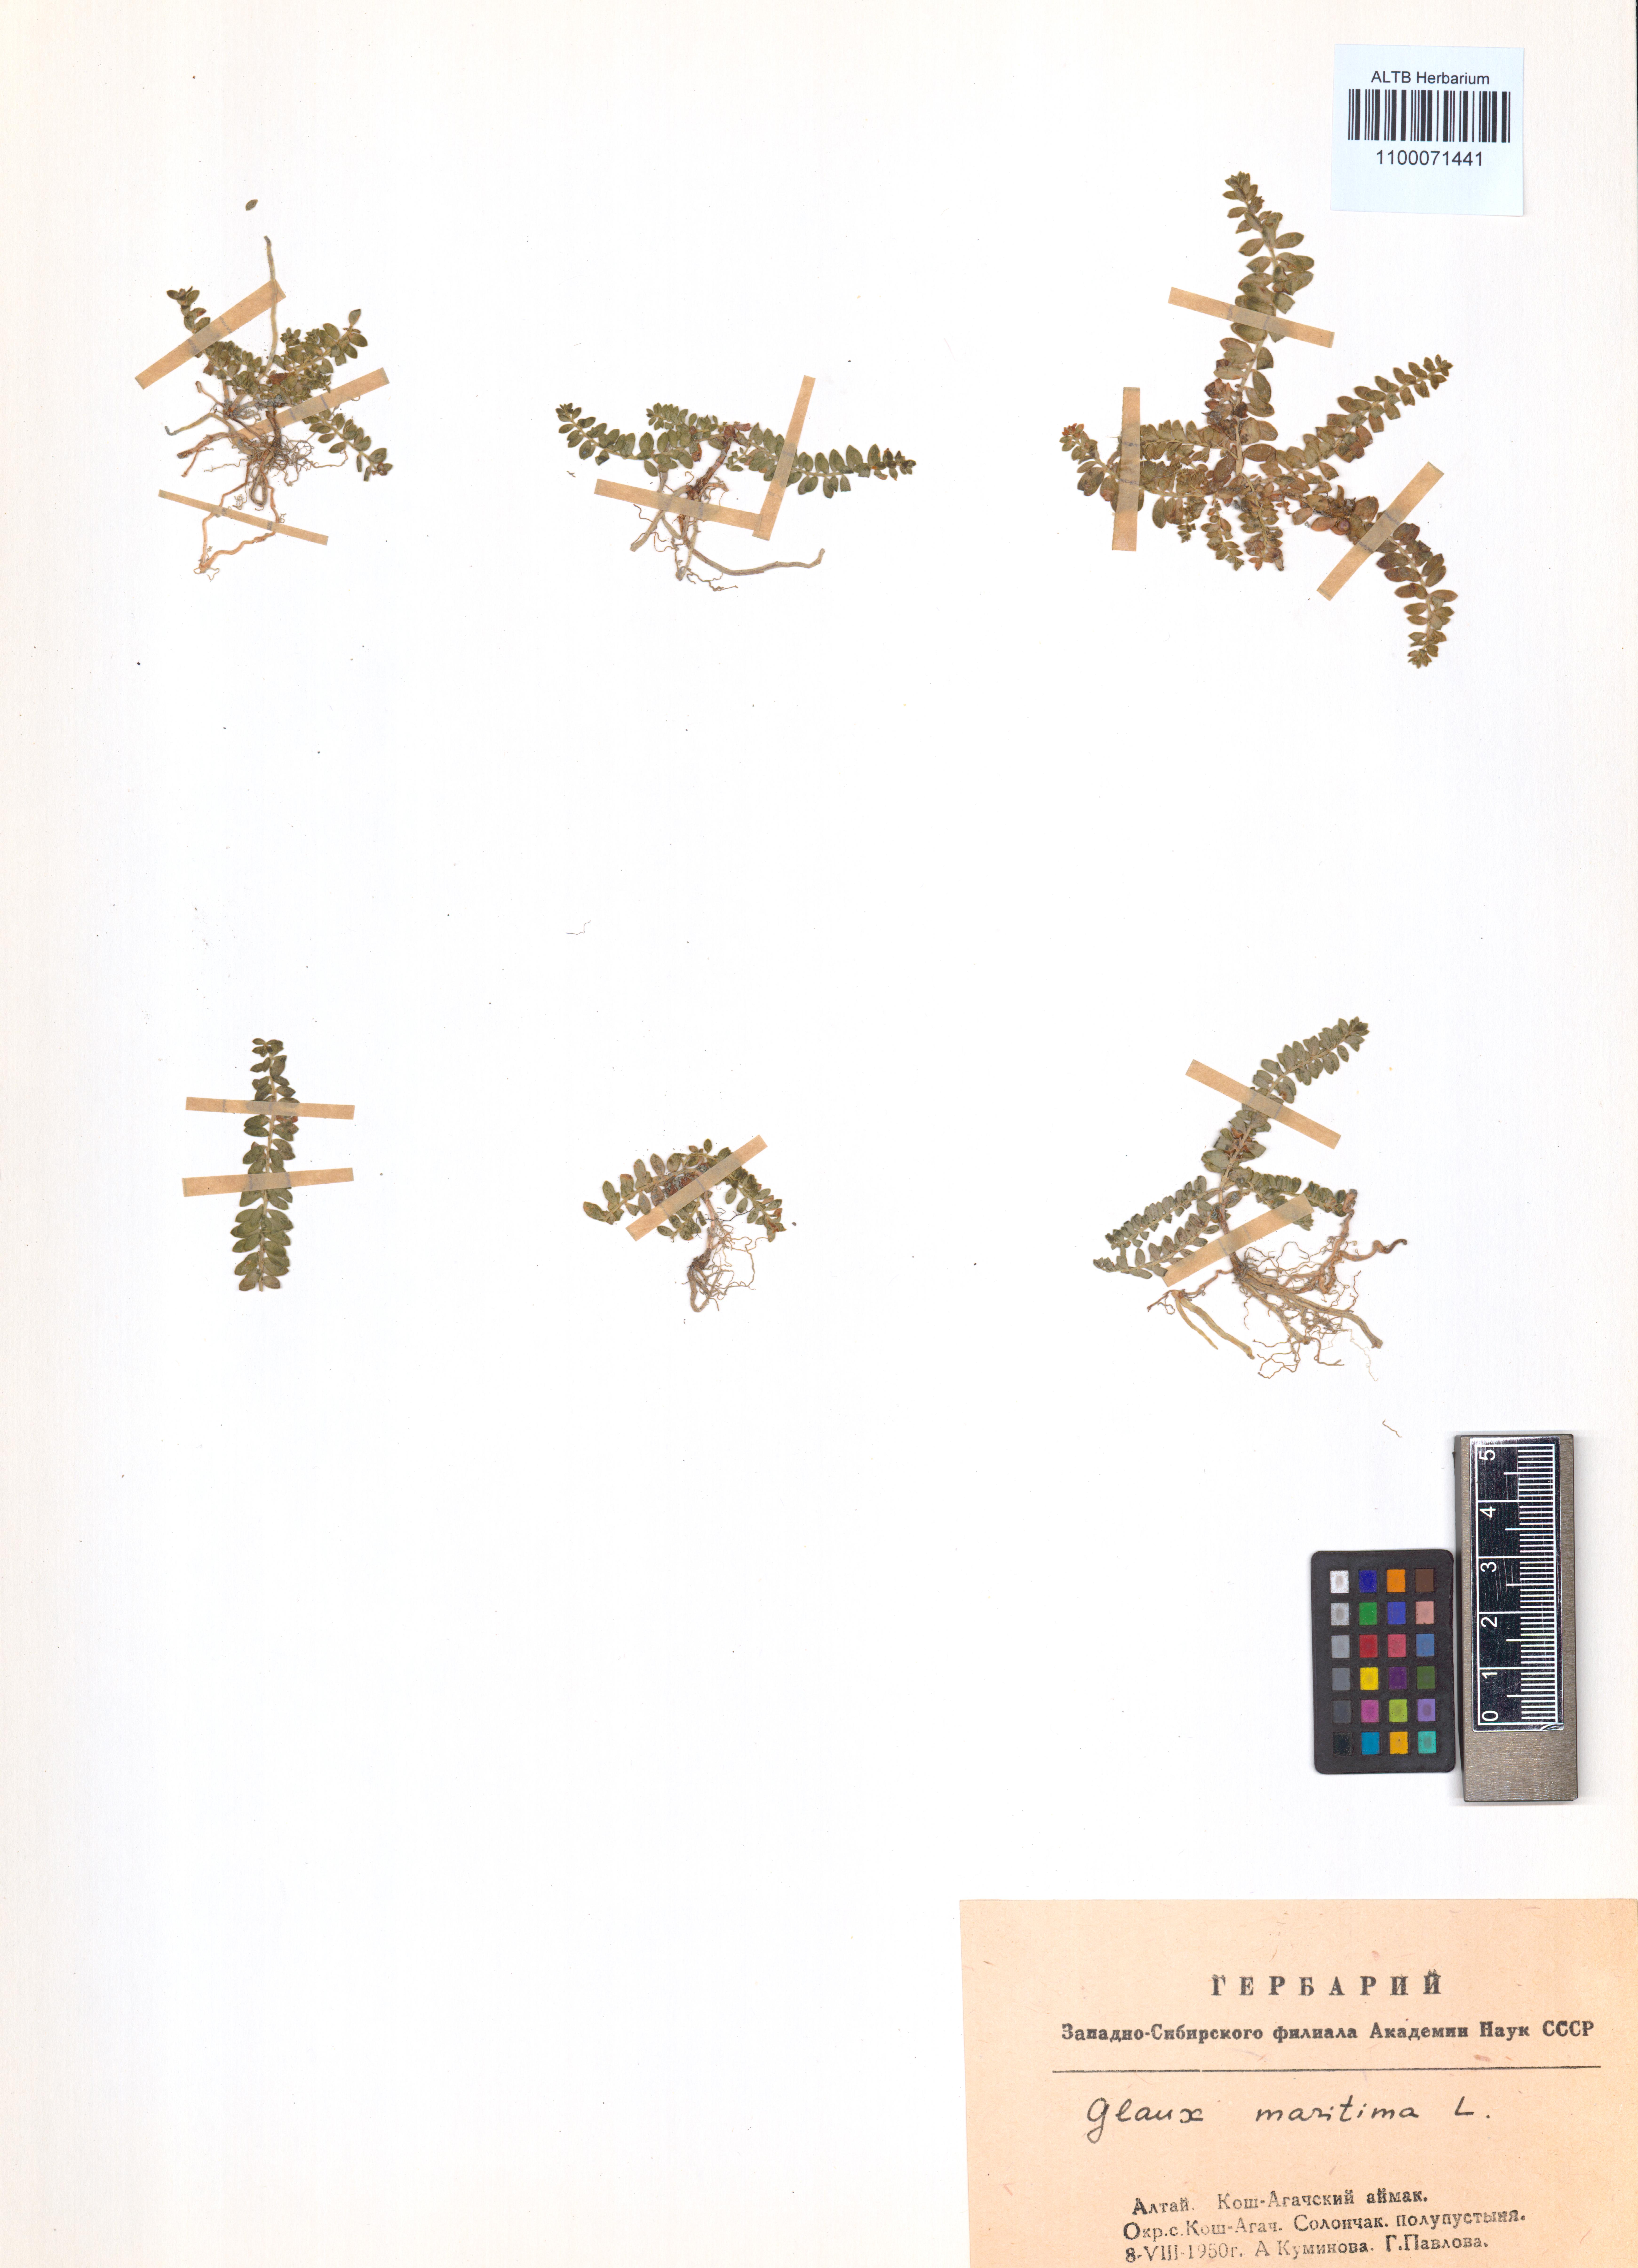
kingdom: Plantae
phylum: Tracheophyta
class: Magnoliopsida
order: Ericales
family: Primulaceae
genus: Lysimachia
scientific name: Lysimachia maritima
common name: Sea milkwort
